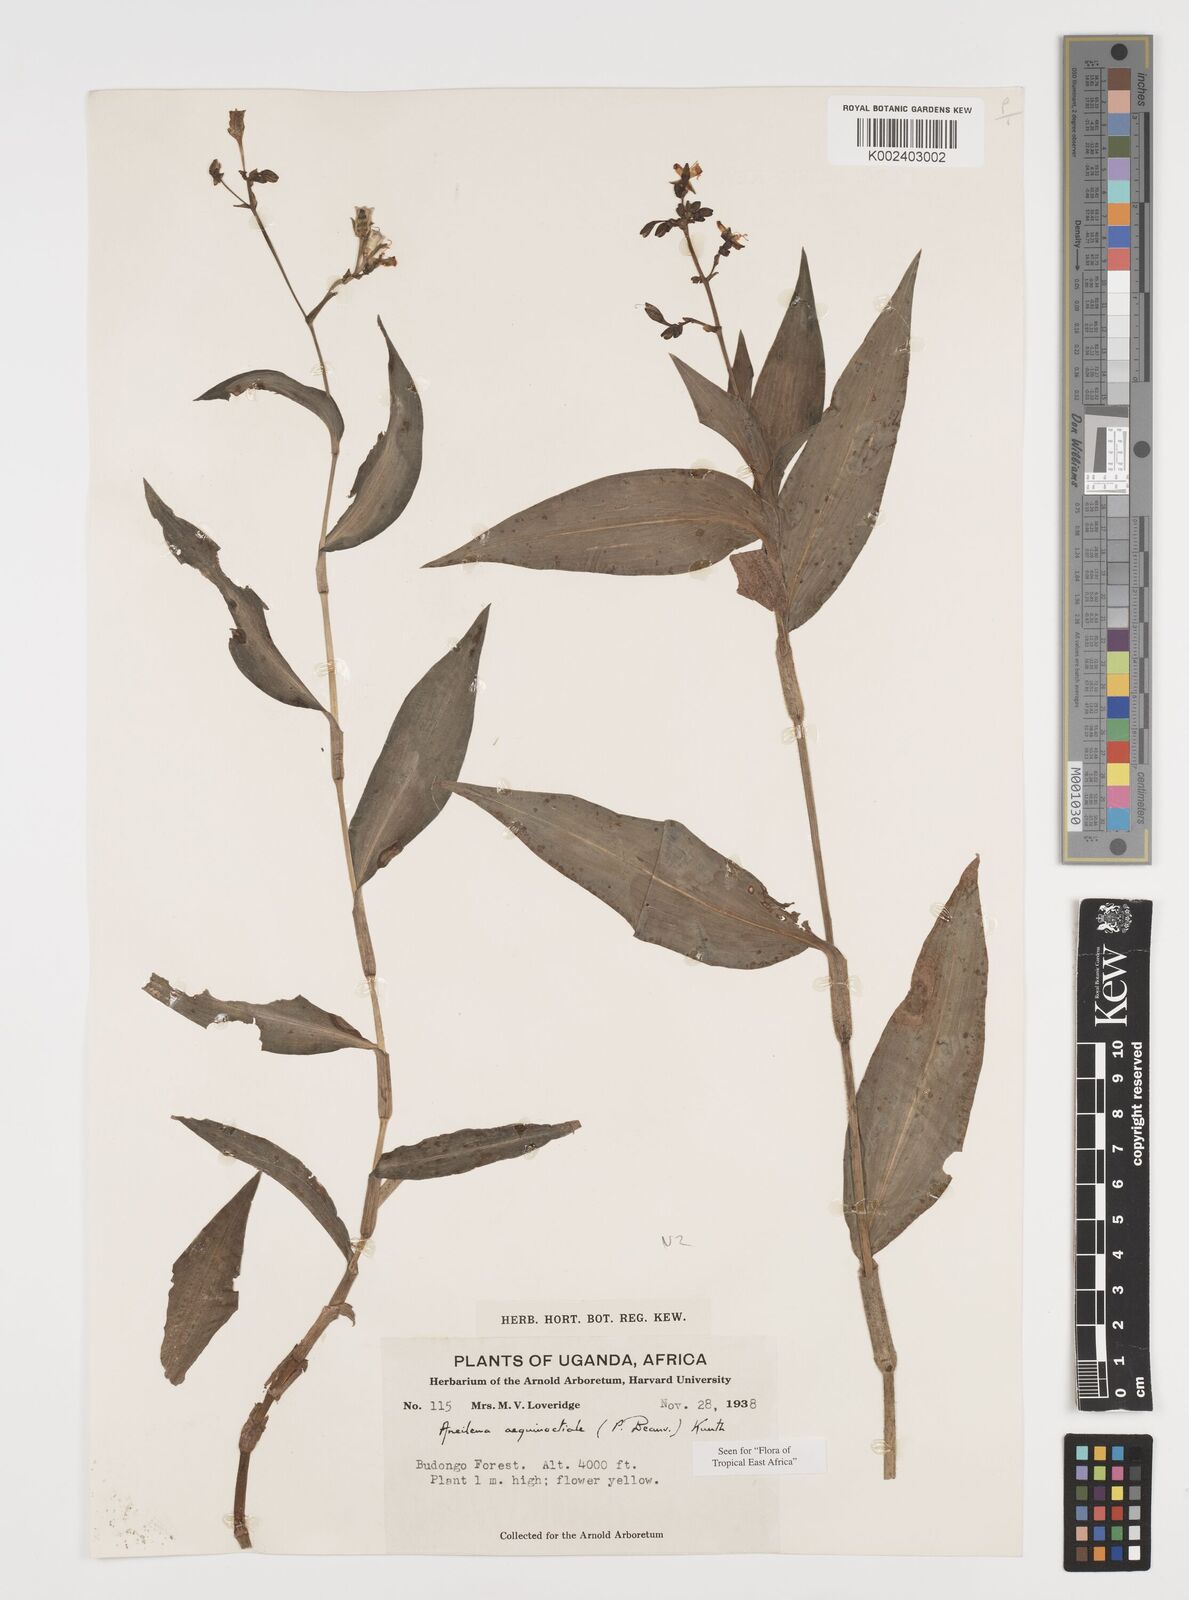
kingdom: Plantae
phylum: Tracheophyta
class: Liliopsida
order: Commelinales
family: Commelinaceae
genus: Aneilema
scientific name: Aneilema aequinoctiale
